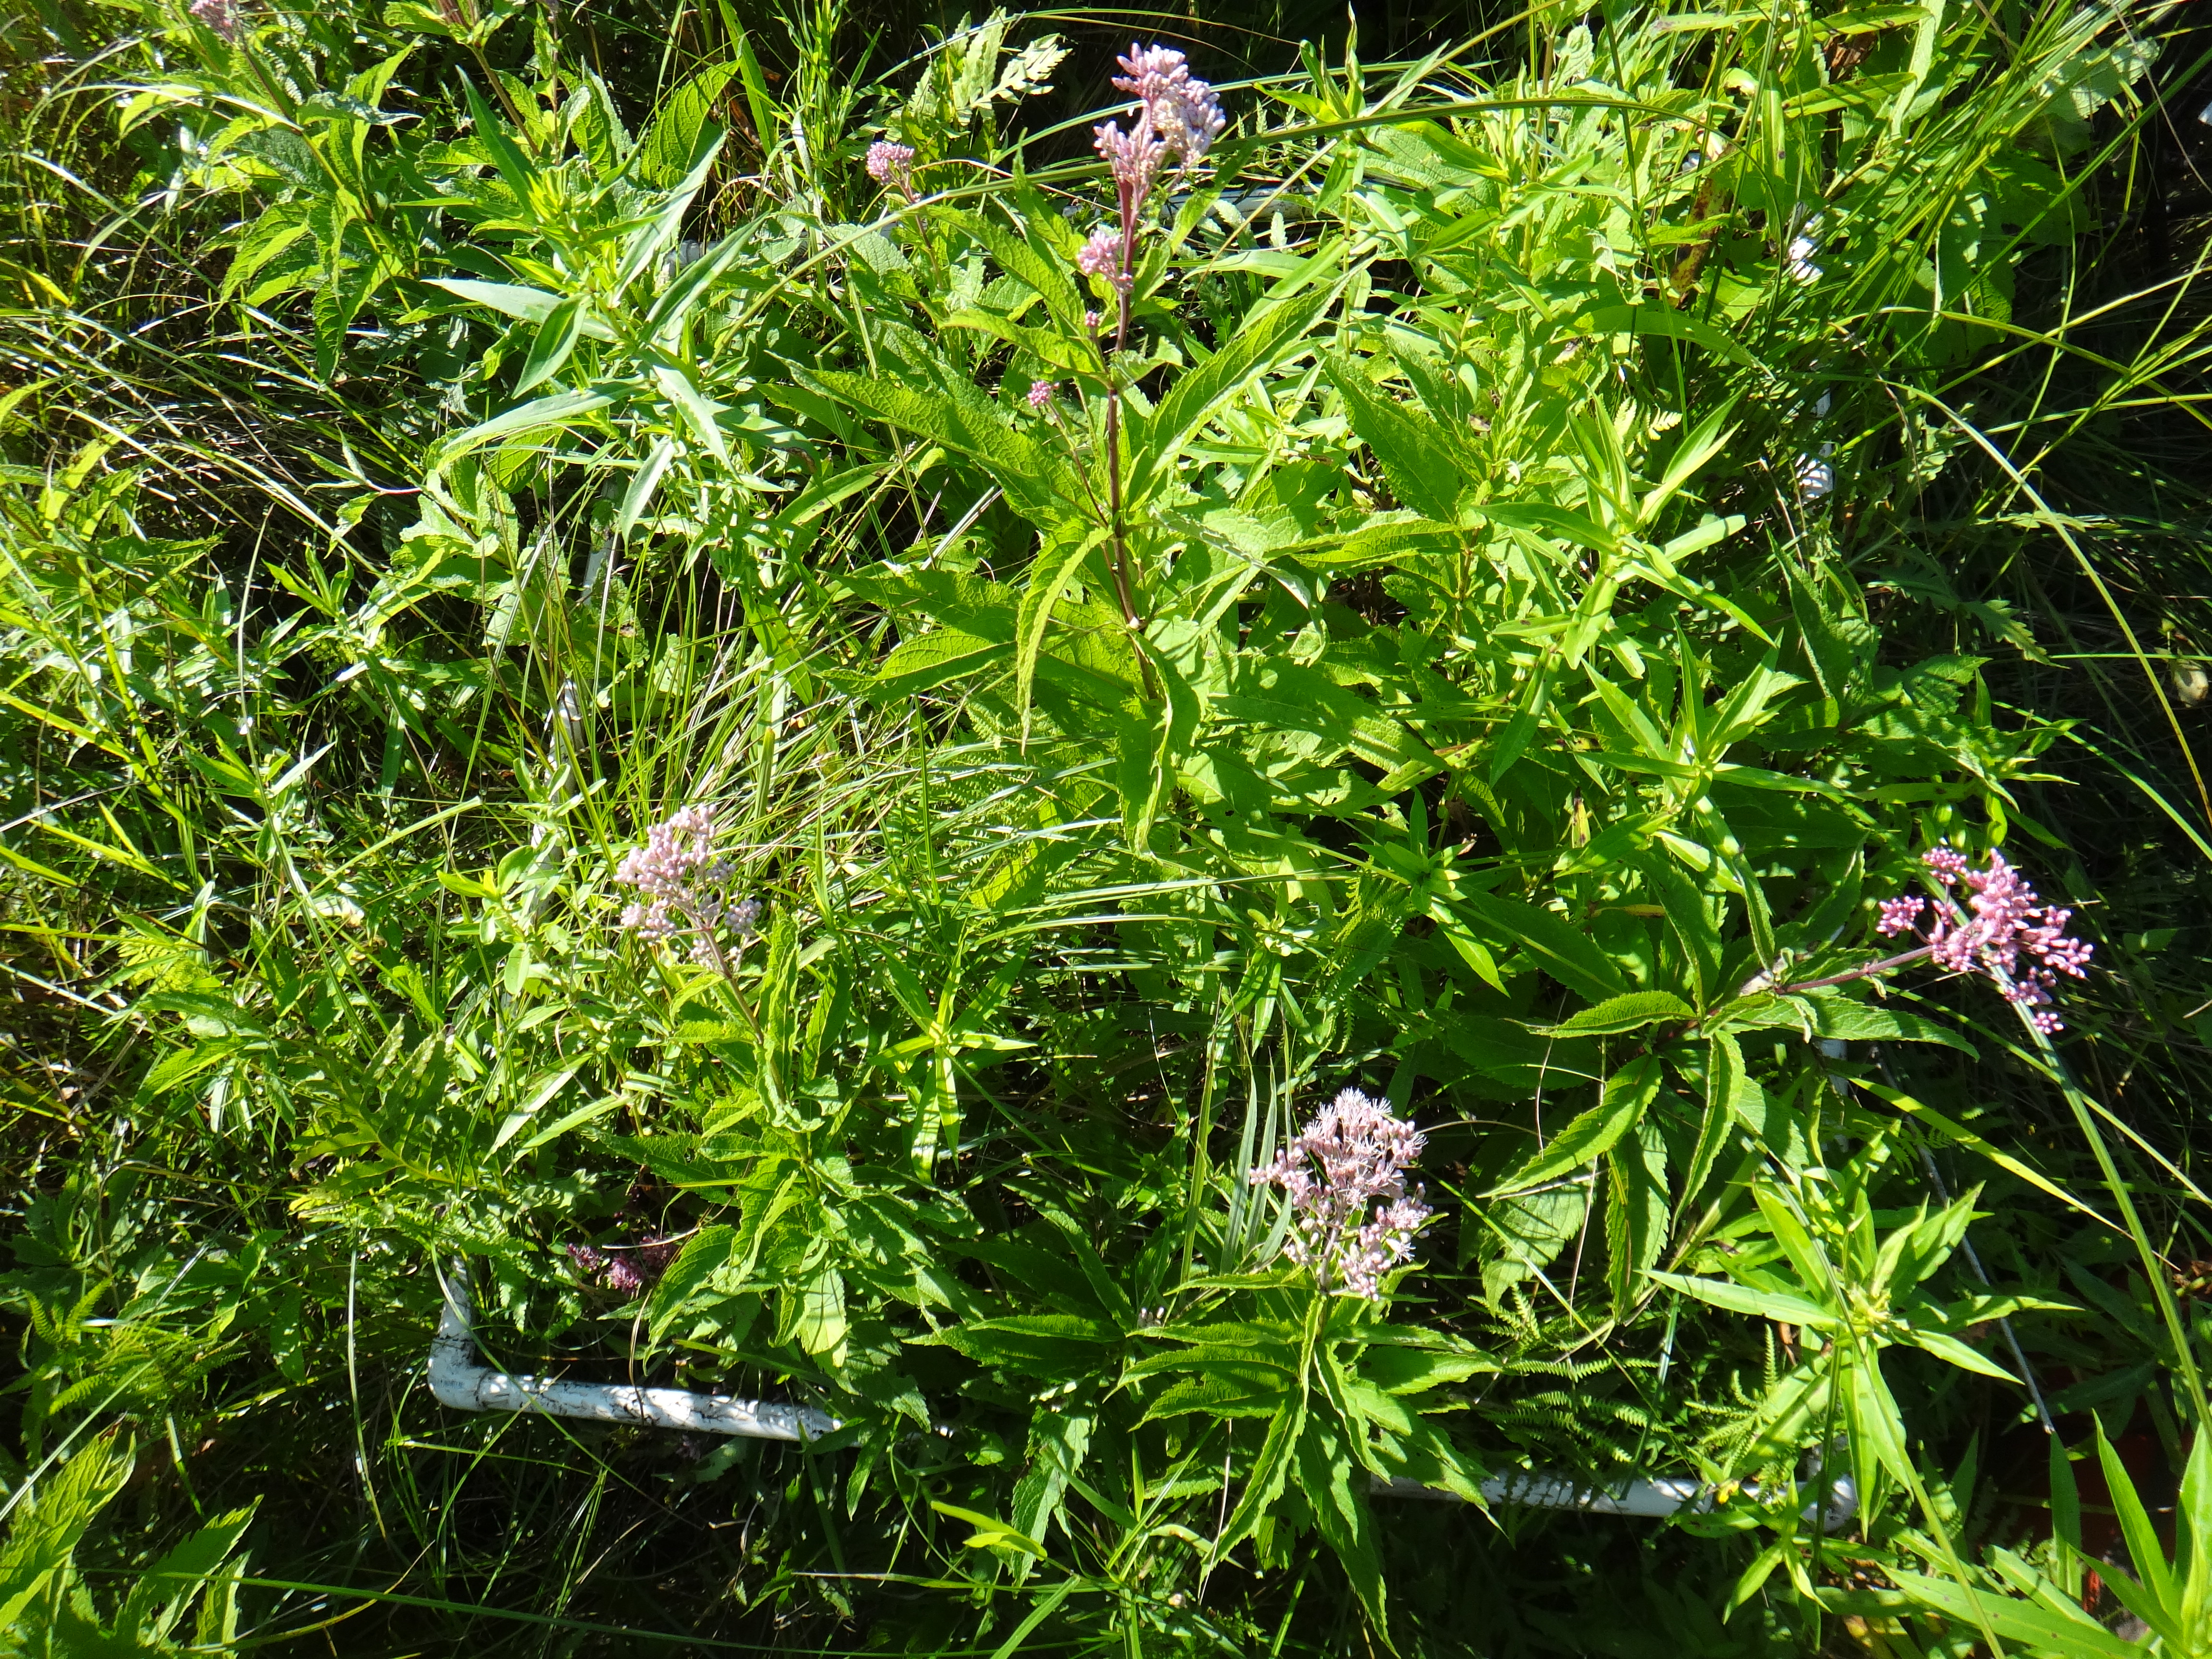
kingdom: Plantae
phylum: Tracheophyta
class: Liliopsida
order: Poales
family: Poaceae
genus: Agrostis
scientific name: Agrostis gigantea
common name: Black bent
